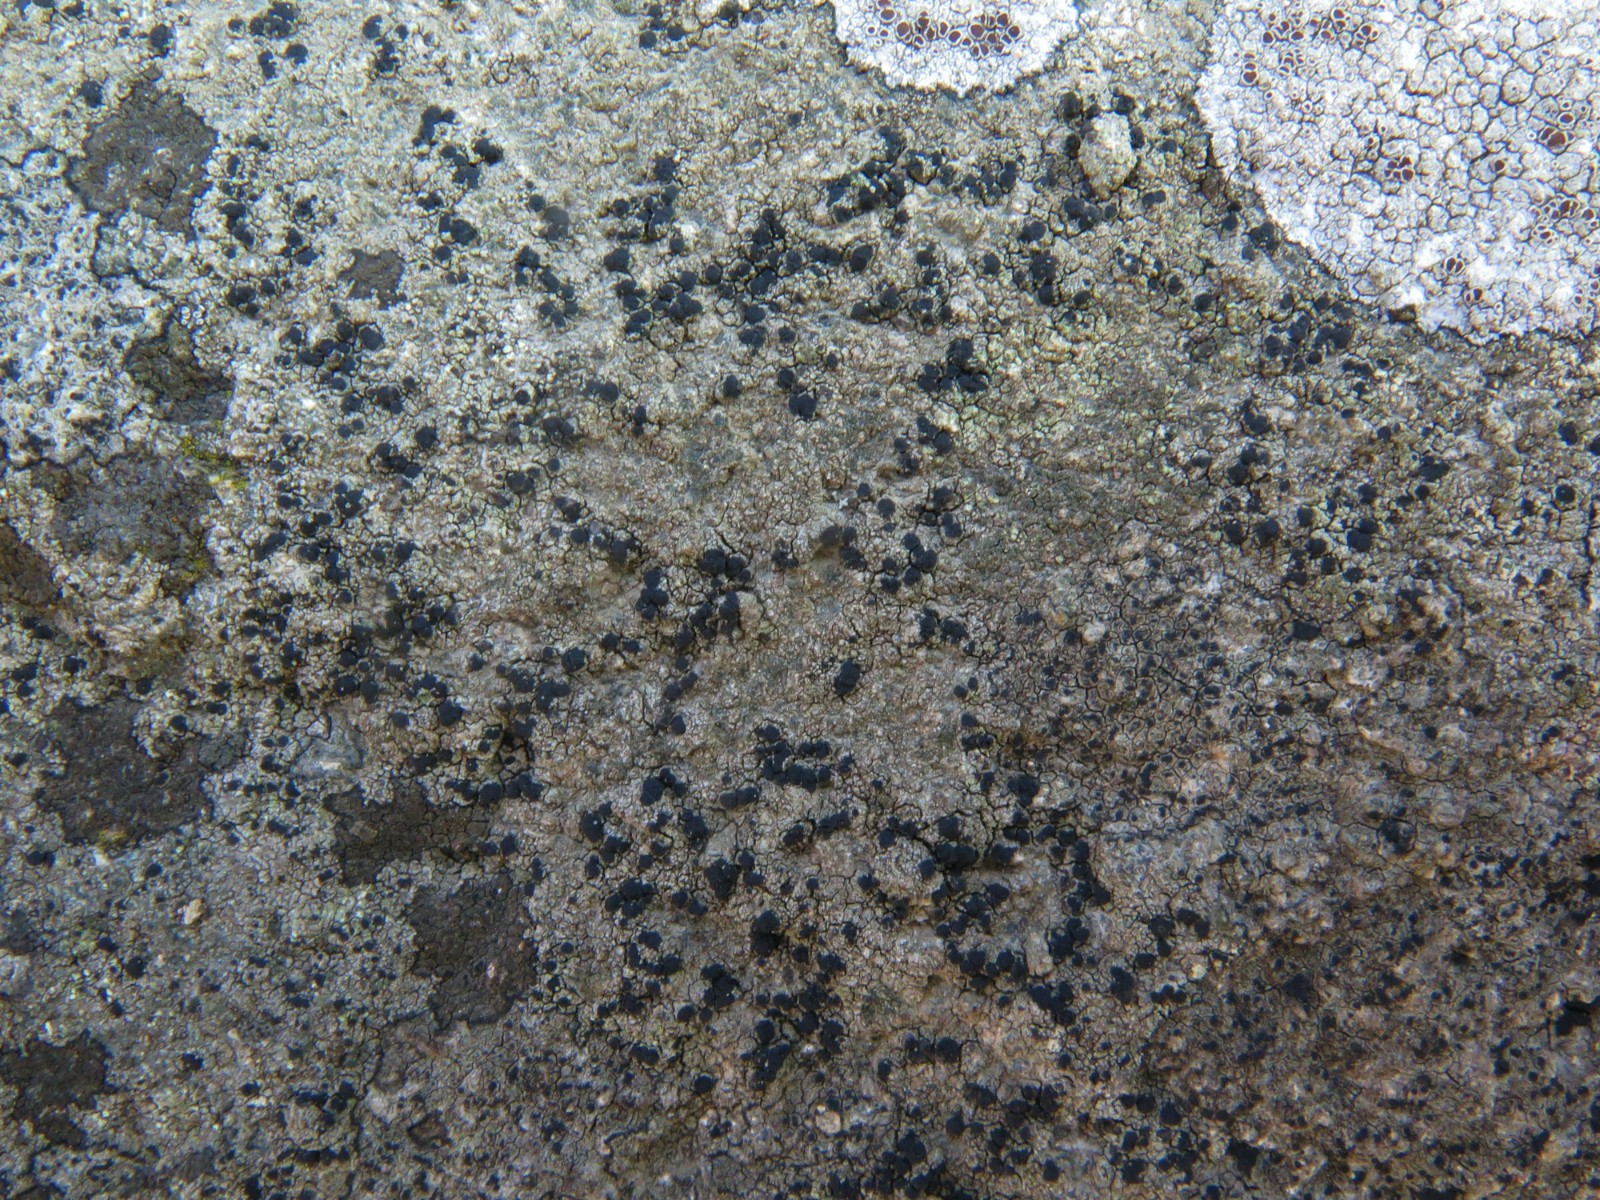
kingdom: Fungi
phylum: Ascomycota
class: Lecanoromycetes
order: Lecanorales
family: Lecanoraceae
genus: Lecidella
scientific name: Lecidella scabra
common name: skurvet skivelav
